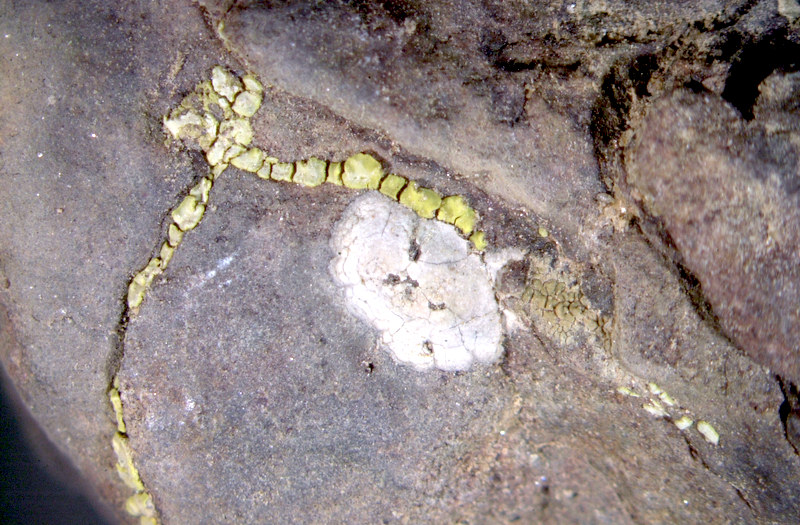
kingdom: Fungi
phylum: Ascomycota
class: Lecanoromycetes
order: Acarosporales
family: Acarosporaceae
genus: Acarospora
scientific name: Acarospora
